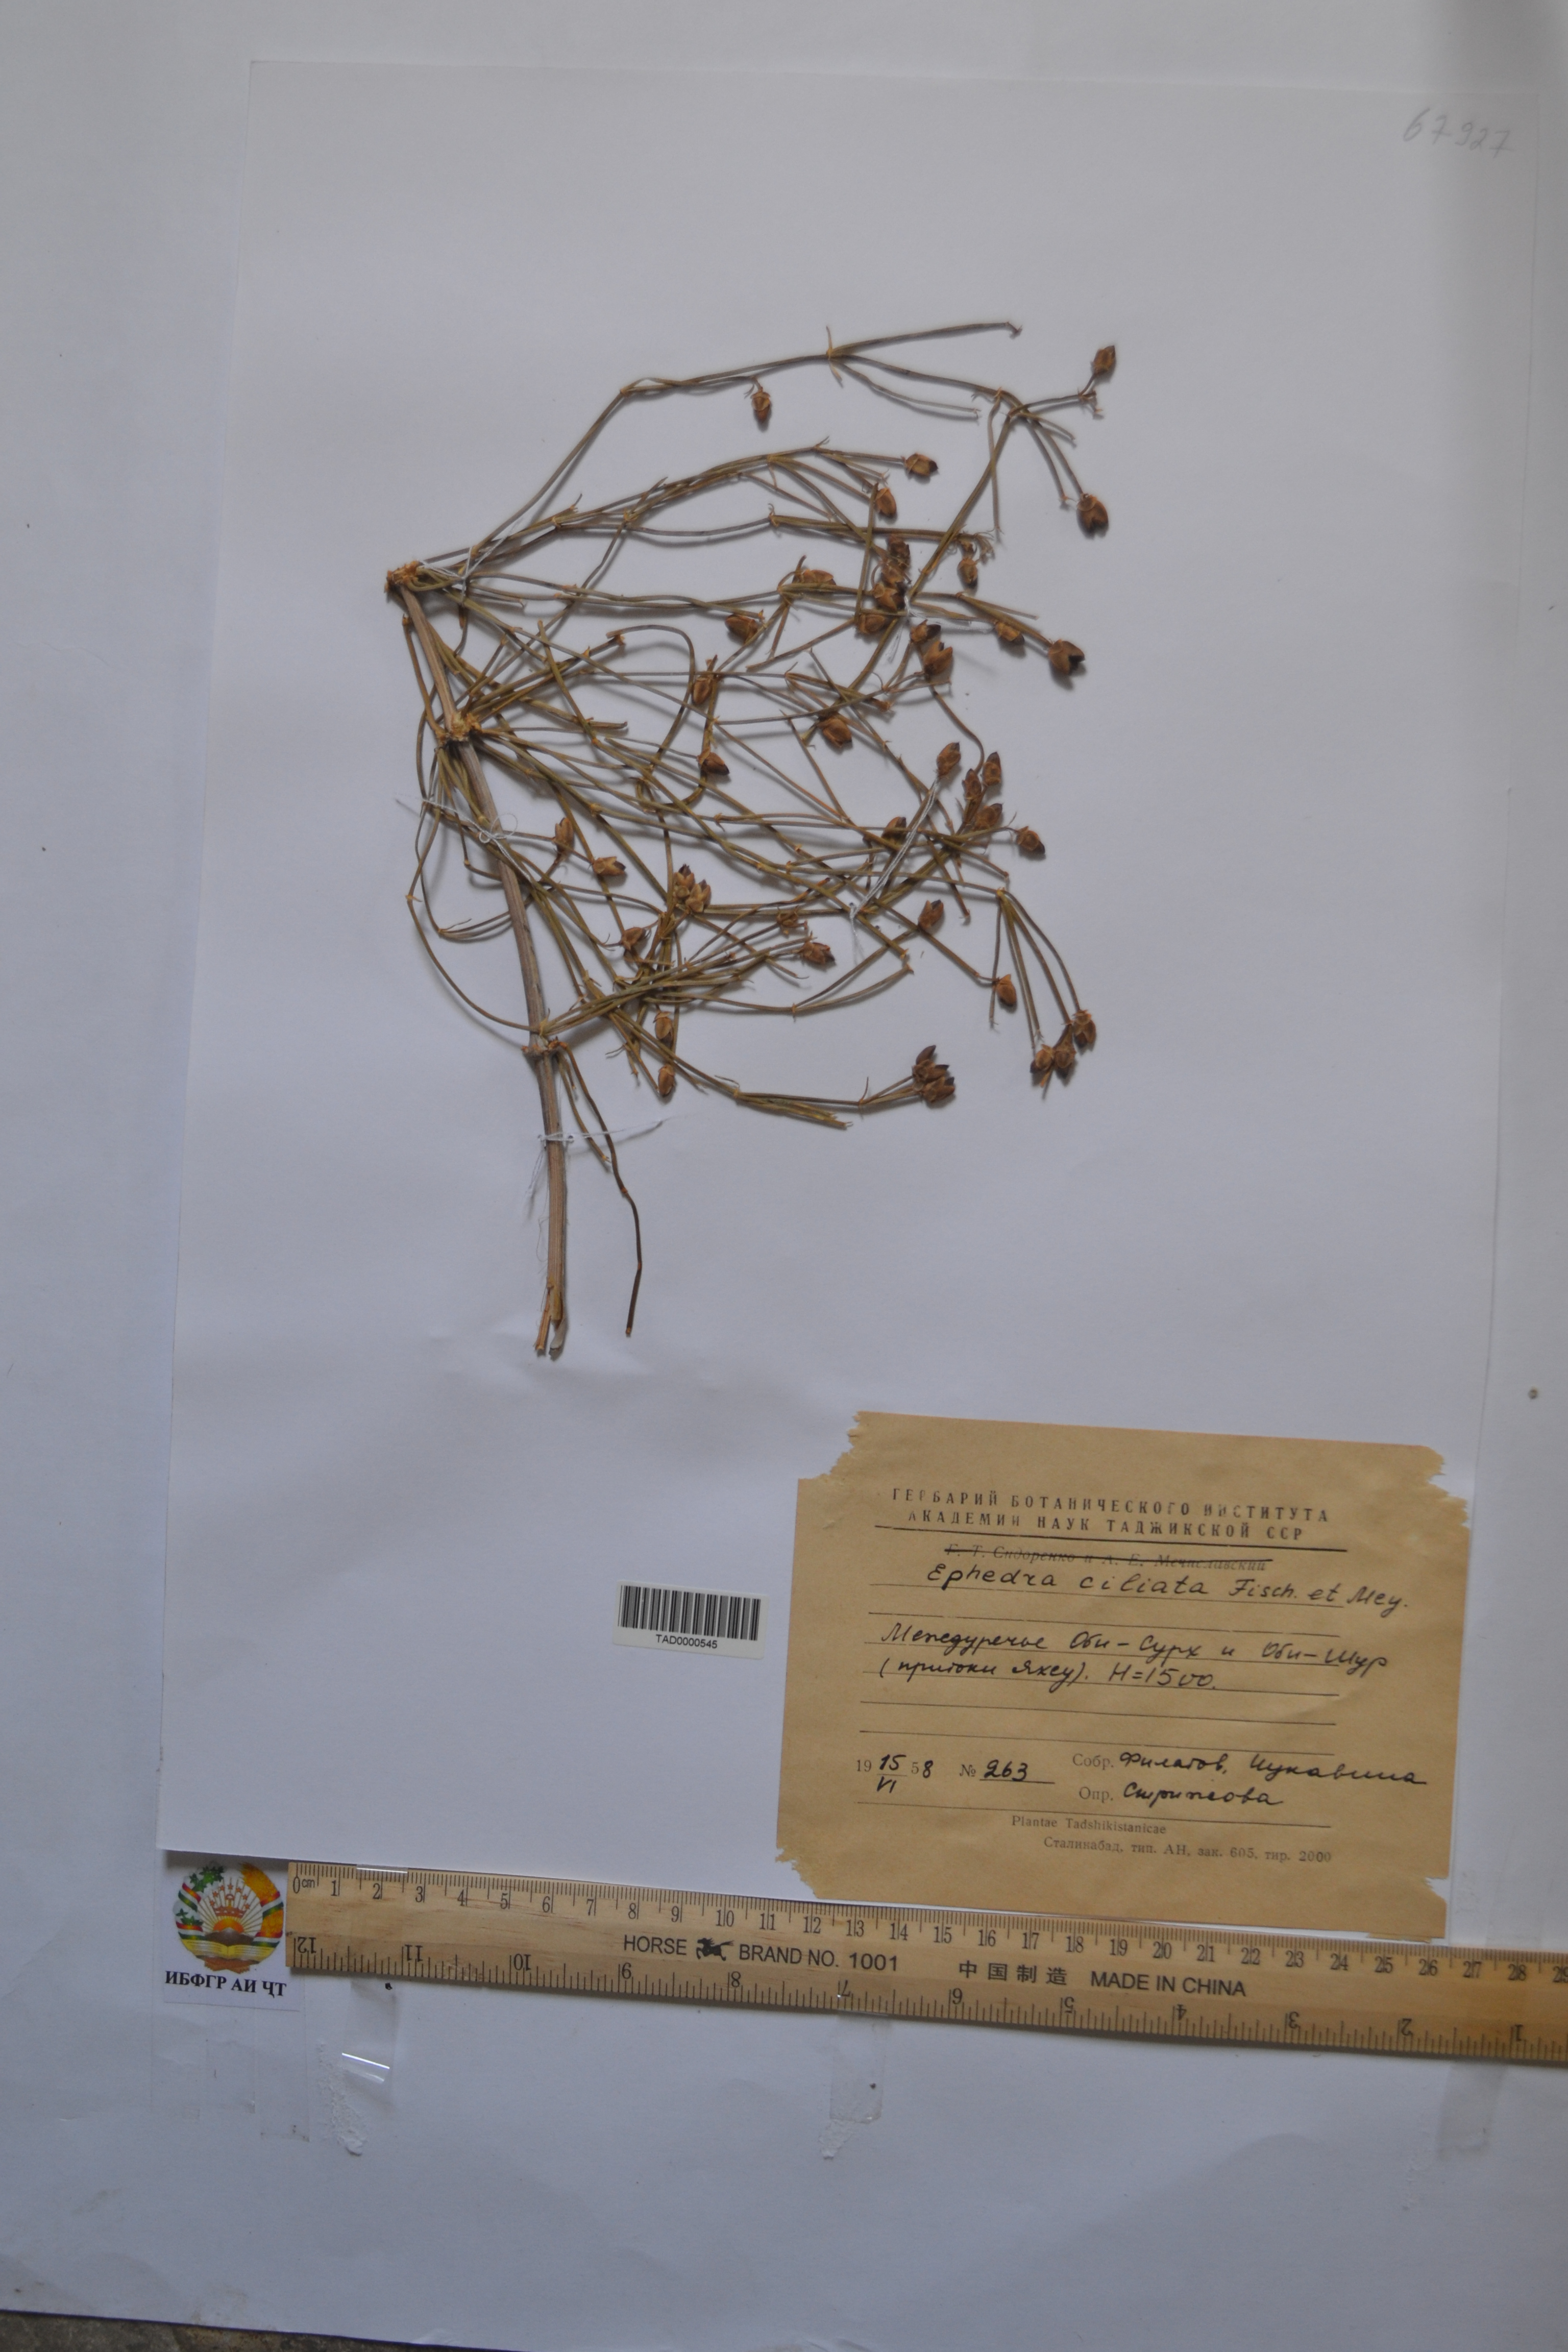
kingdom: Plantae
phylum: Tracheophyta
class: Gnetopsida
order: Ephedrales
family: Ephedraceae
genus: Ephedra
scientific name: Ephedra ciliata
